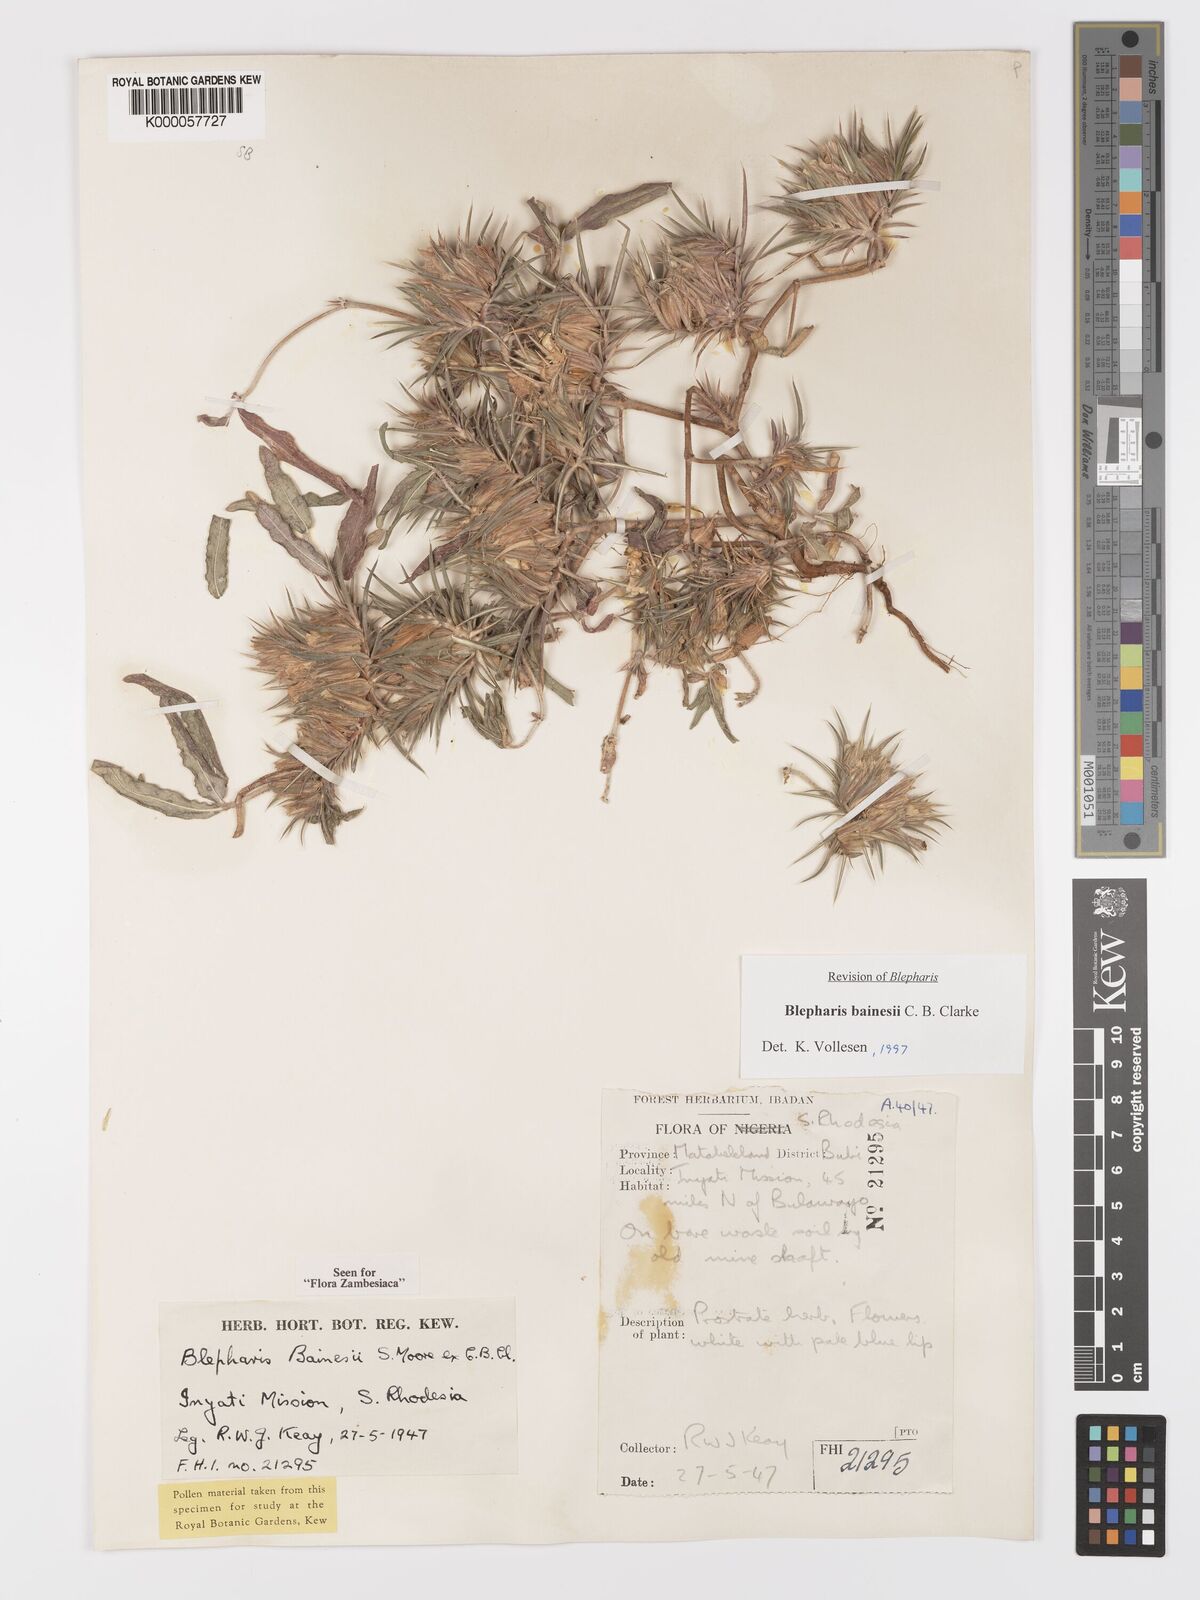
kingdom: Plantae
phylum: Tracheophyta
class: Magnoliopsida
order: Lamiales
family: Acanthaceae
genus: Blepharis
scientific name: Blepharis bainesii
